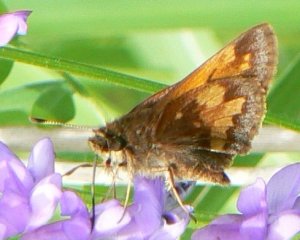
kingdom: Animalia
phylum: Arthropoda
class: Insecta
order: Lepidoptera
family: Hesperiidae
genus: Lon
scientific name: Lon hobomok
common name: Hobomok Skipper
